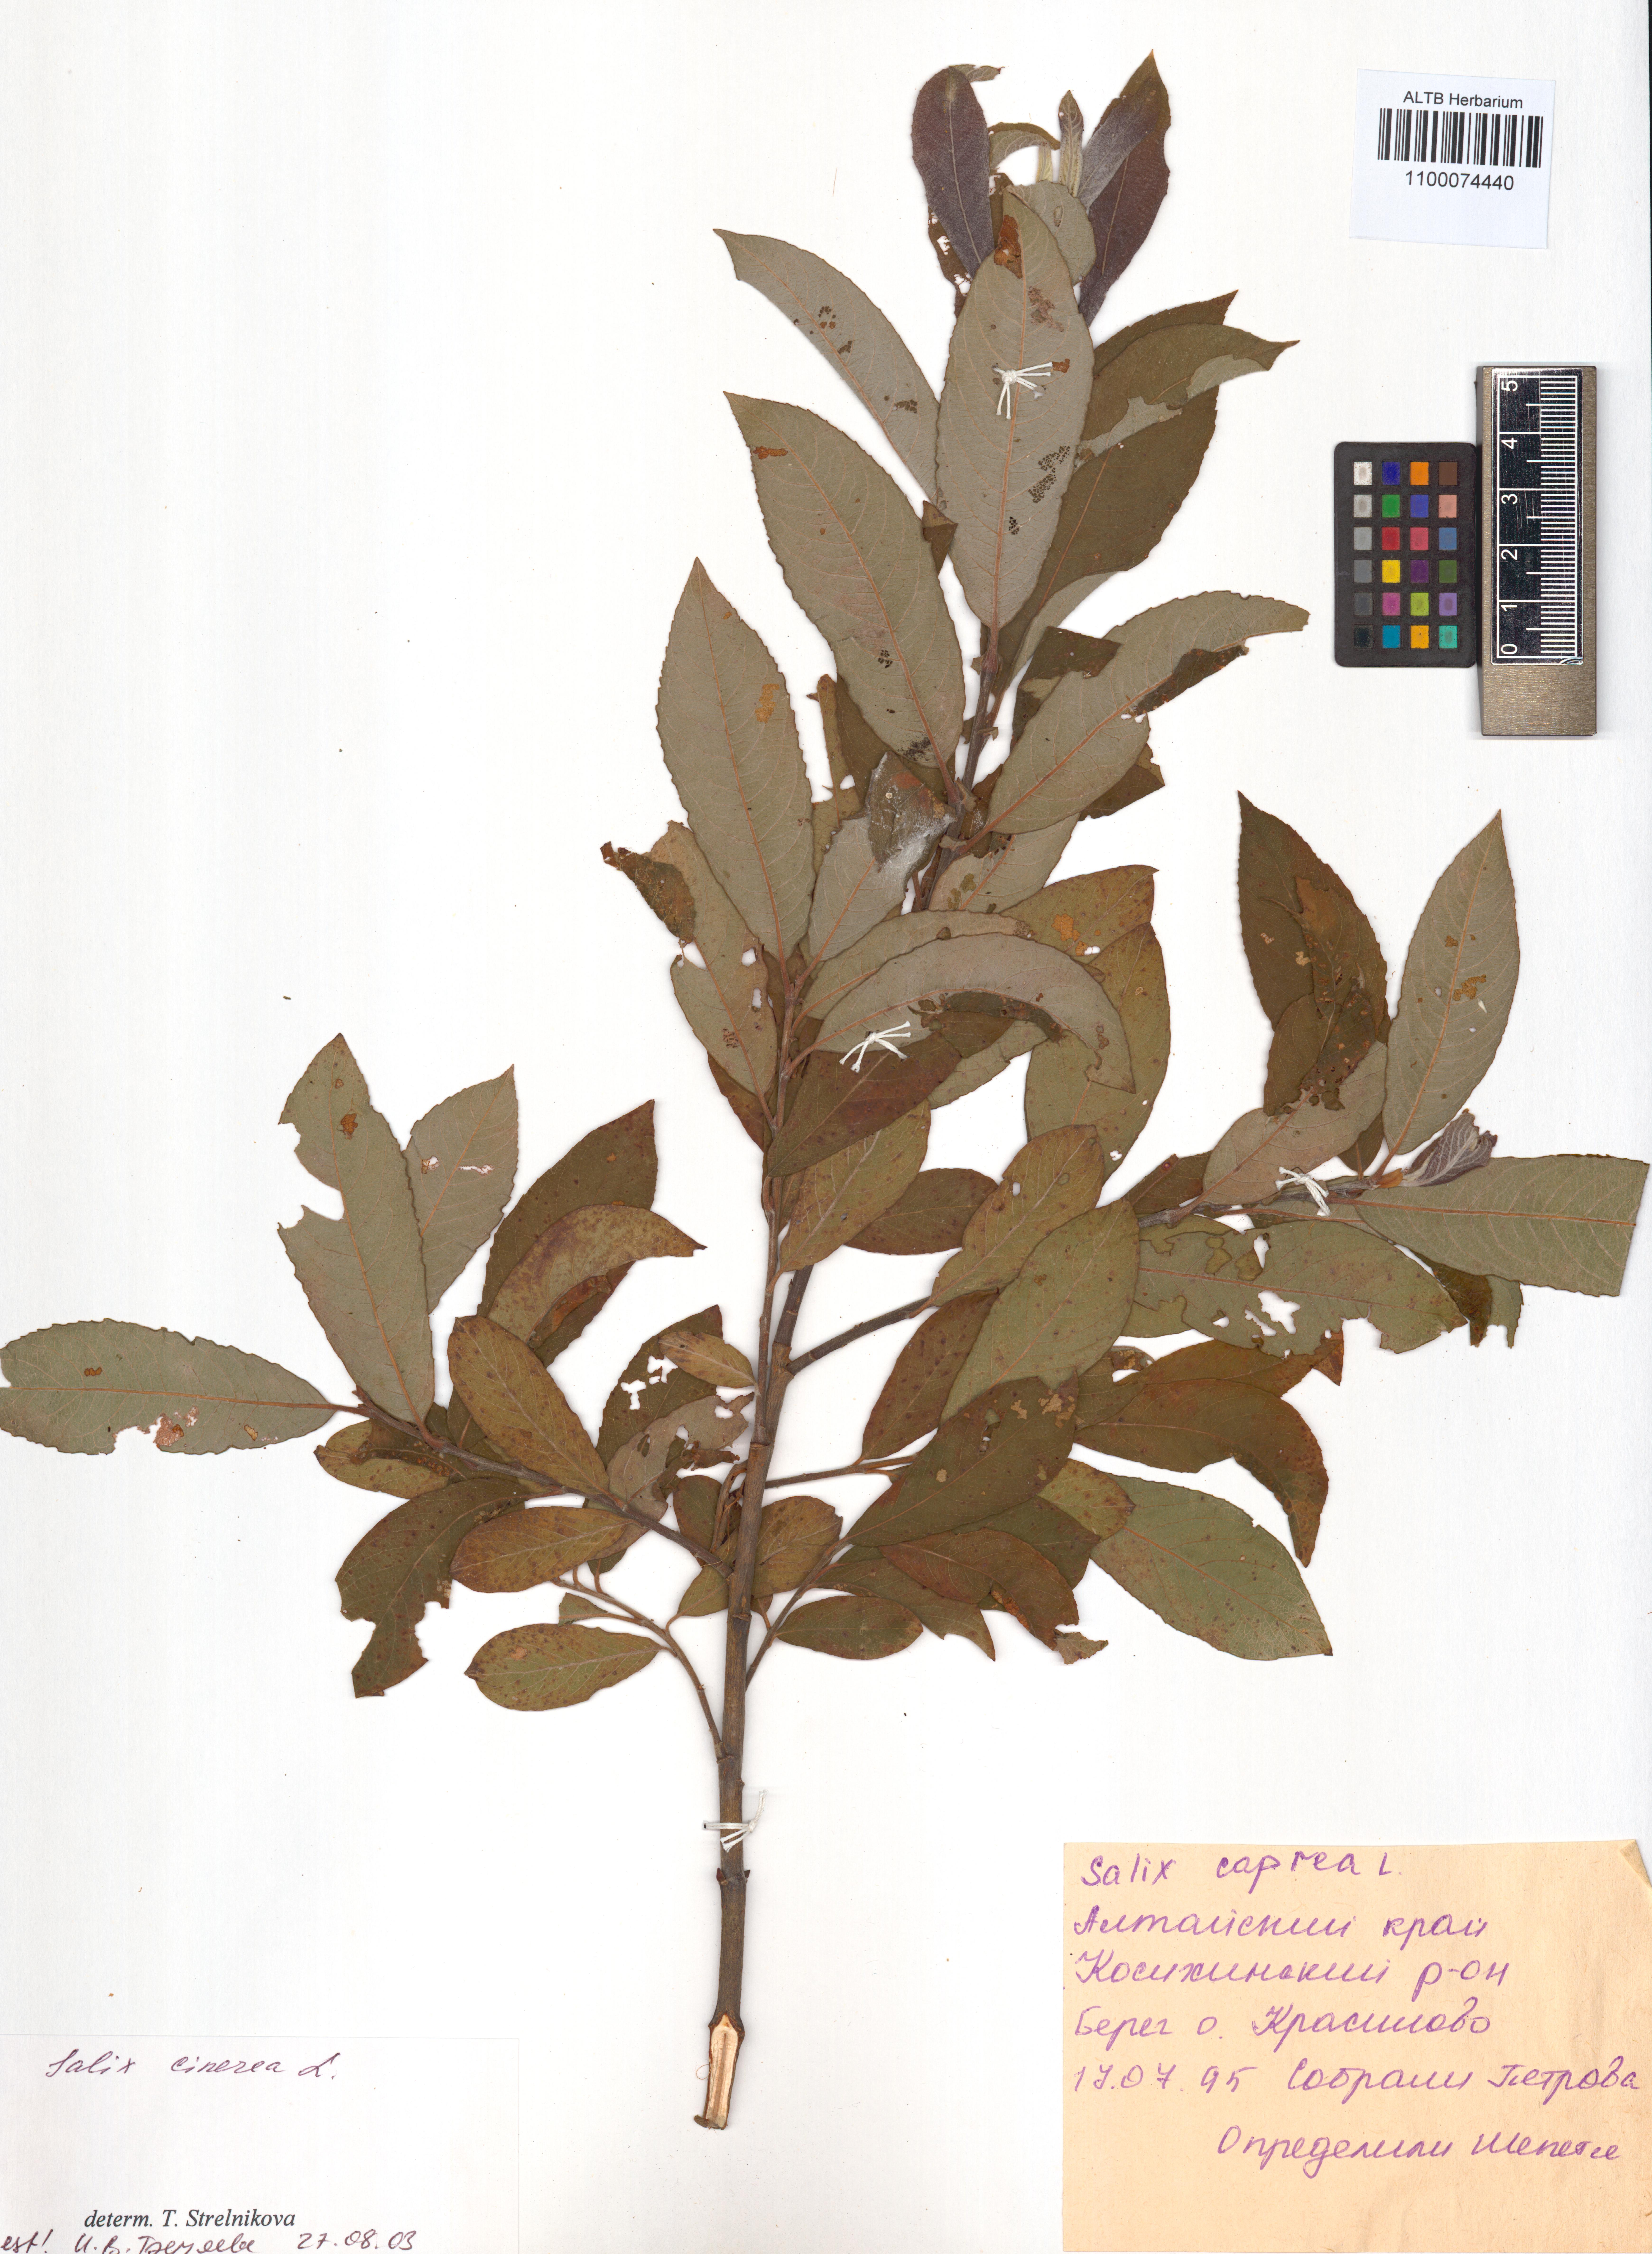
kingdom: Plantae
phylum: Tracheophyta
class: Magnoliopsida
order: Malpighiales
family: Salicaceae
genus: Salix
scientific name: Salix cinerea
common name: Common sallow
